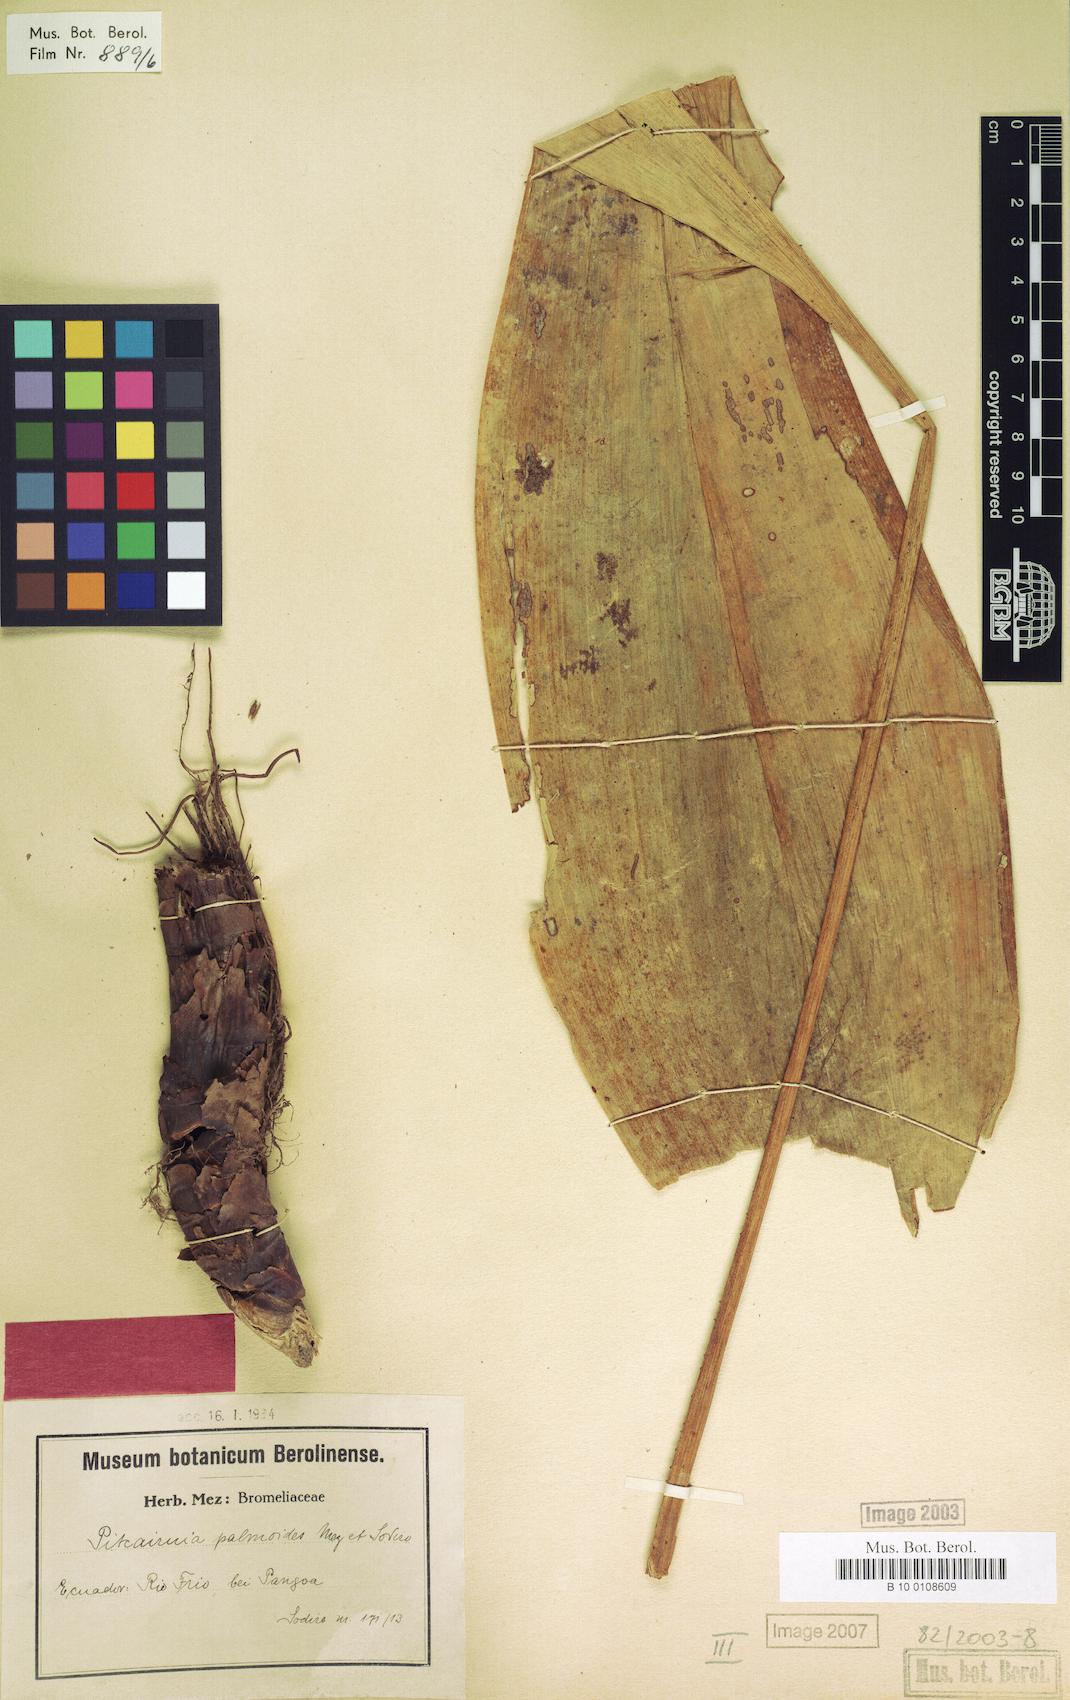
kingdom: Plantae
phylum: Tracheophyta
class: Liliopsida
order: Poales
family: Bromeliaceae
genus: Pitcairnia
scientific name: Pitcairnia palmoides
